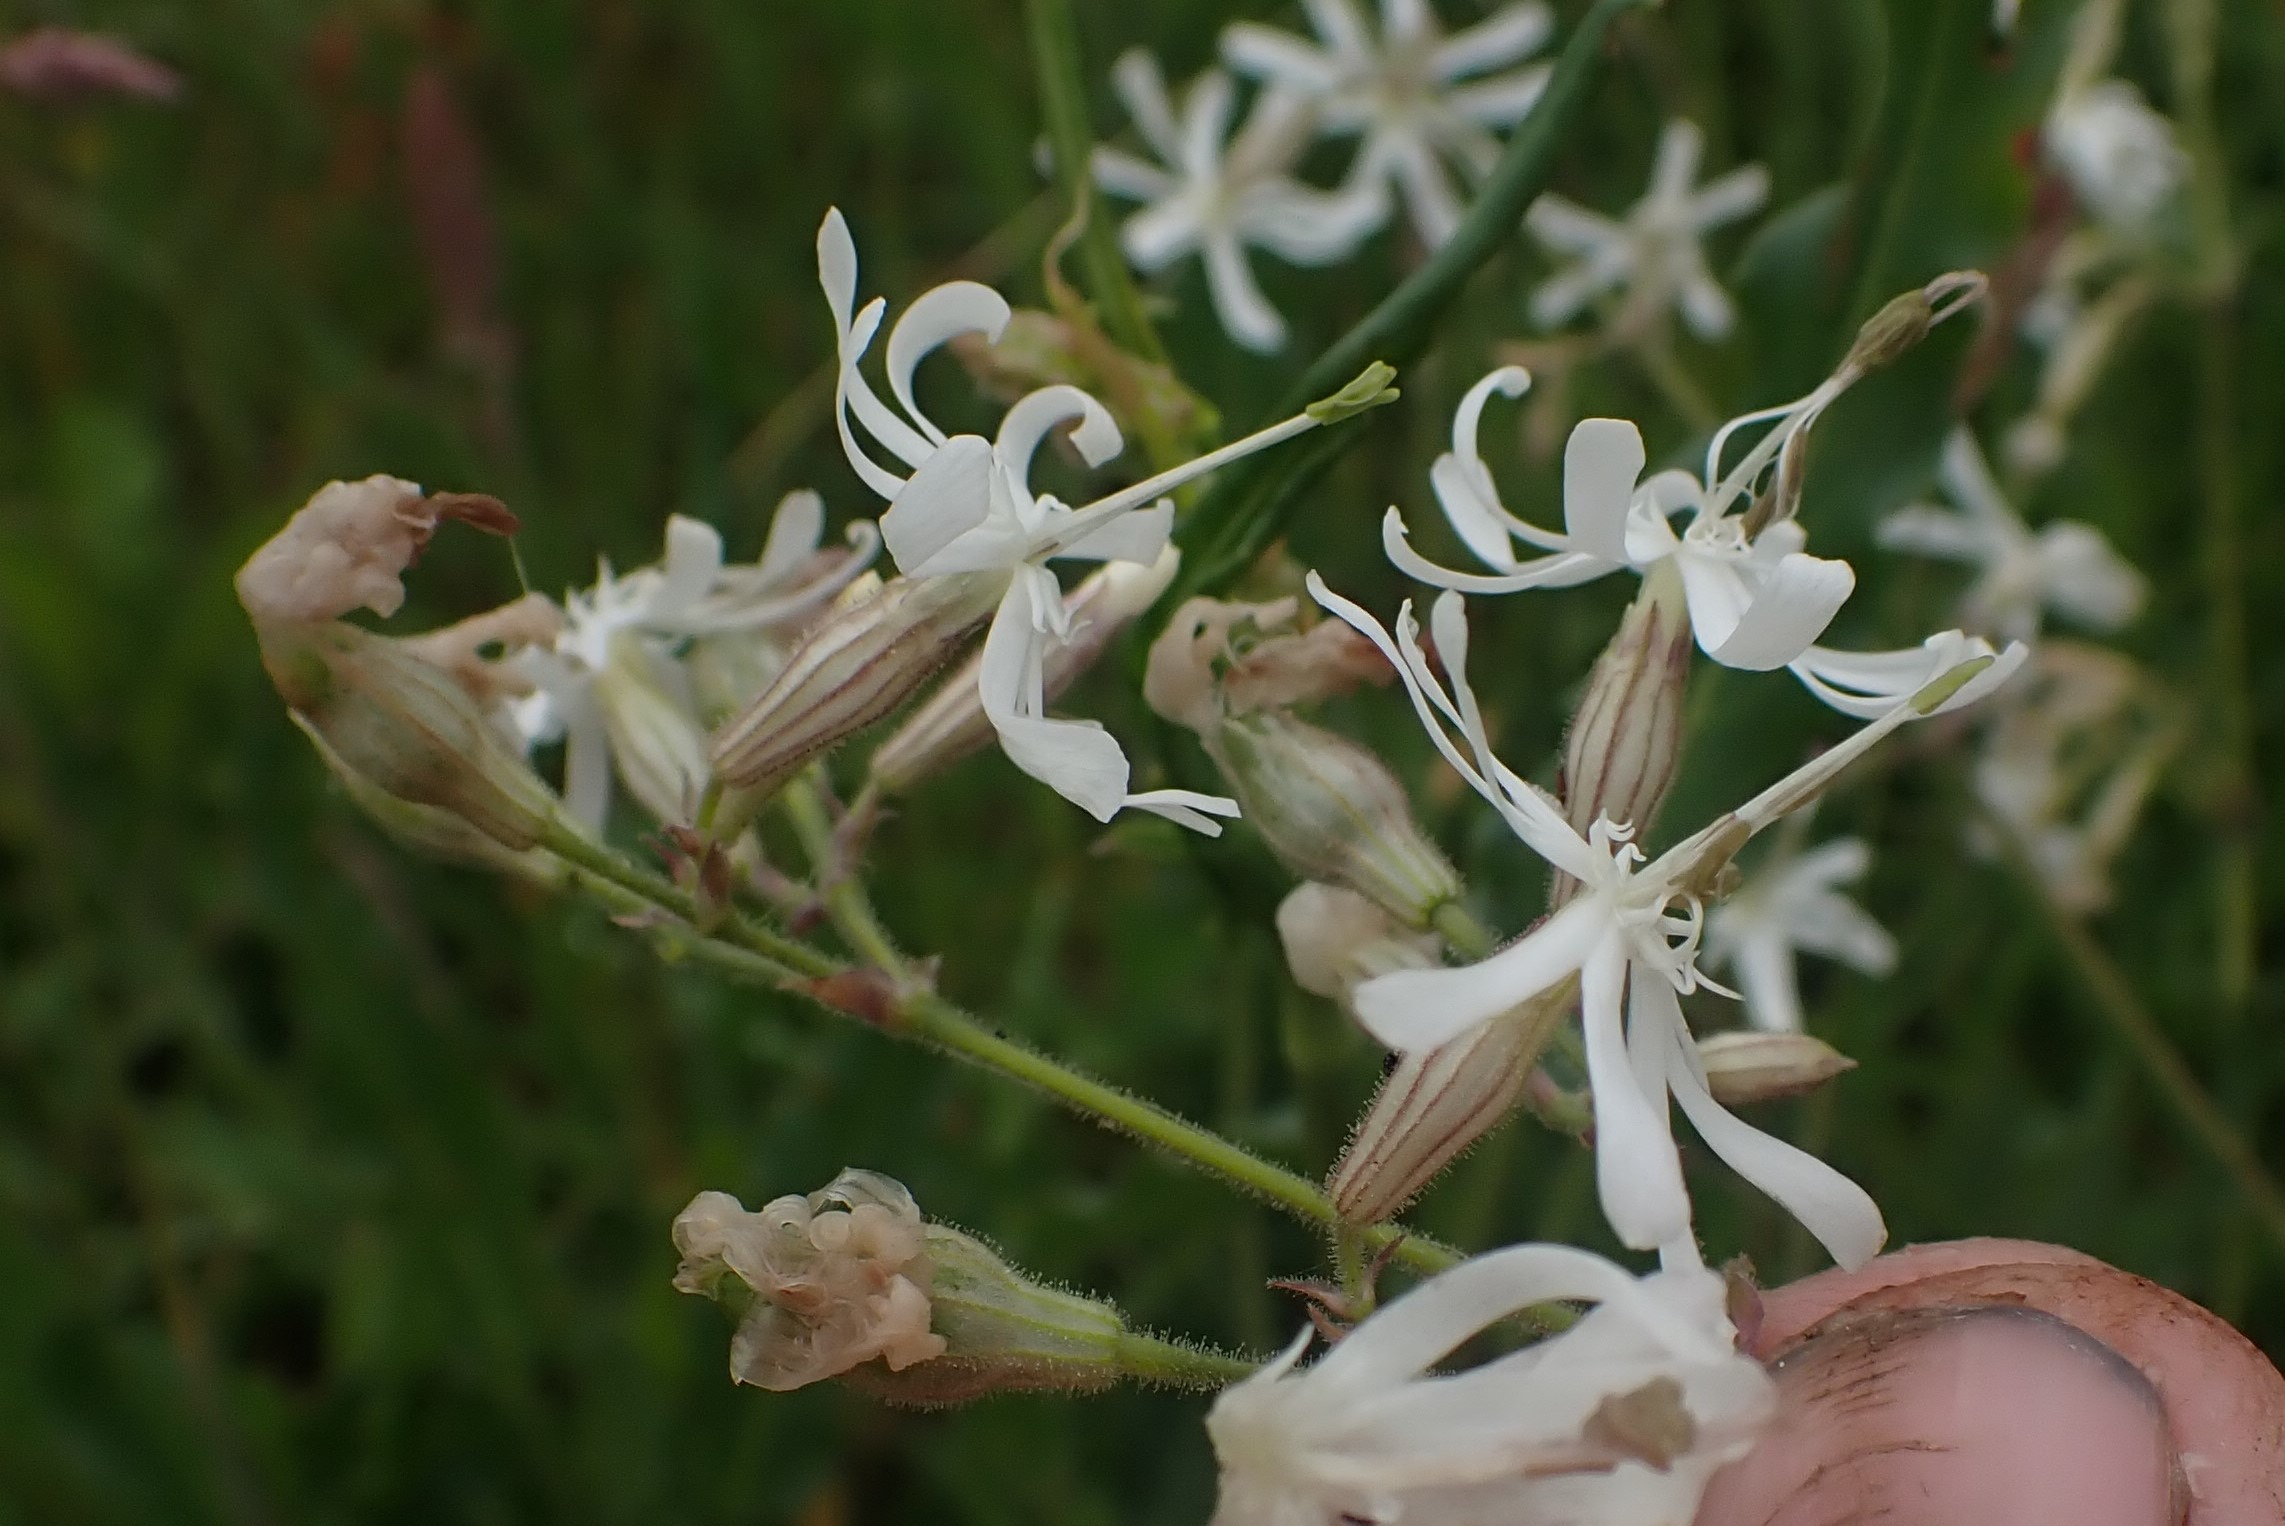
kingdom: Plantae
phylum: Tracheophyta
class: Magnoliopsida
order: Caryophyllales
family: Caryophyllaceae
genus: Silene
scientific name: Silene nutans
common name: Nikkende limurt
